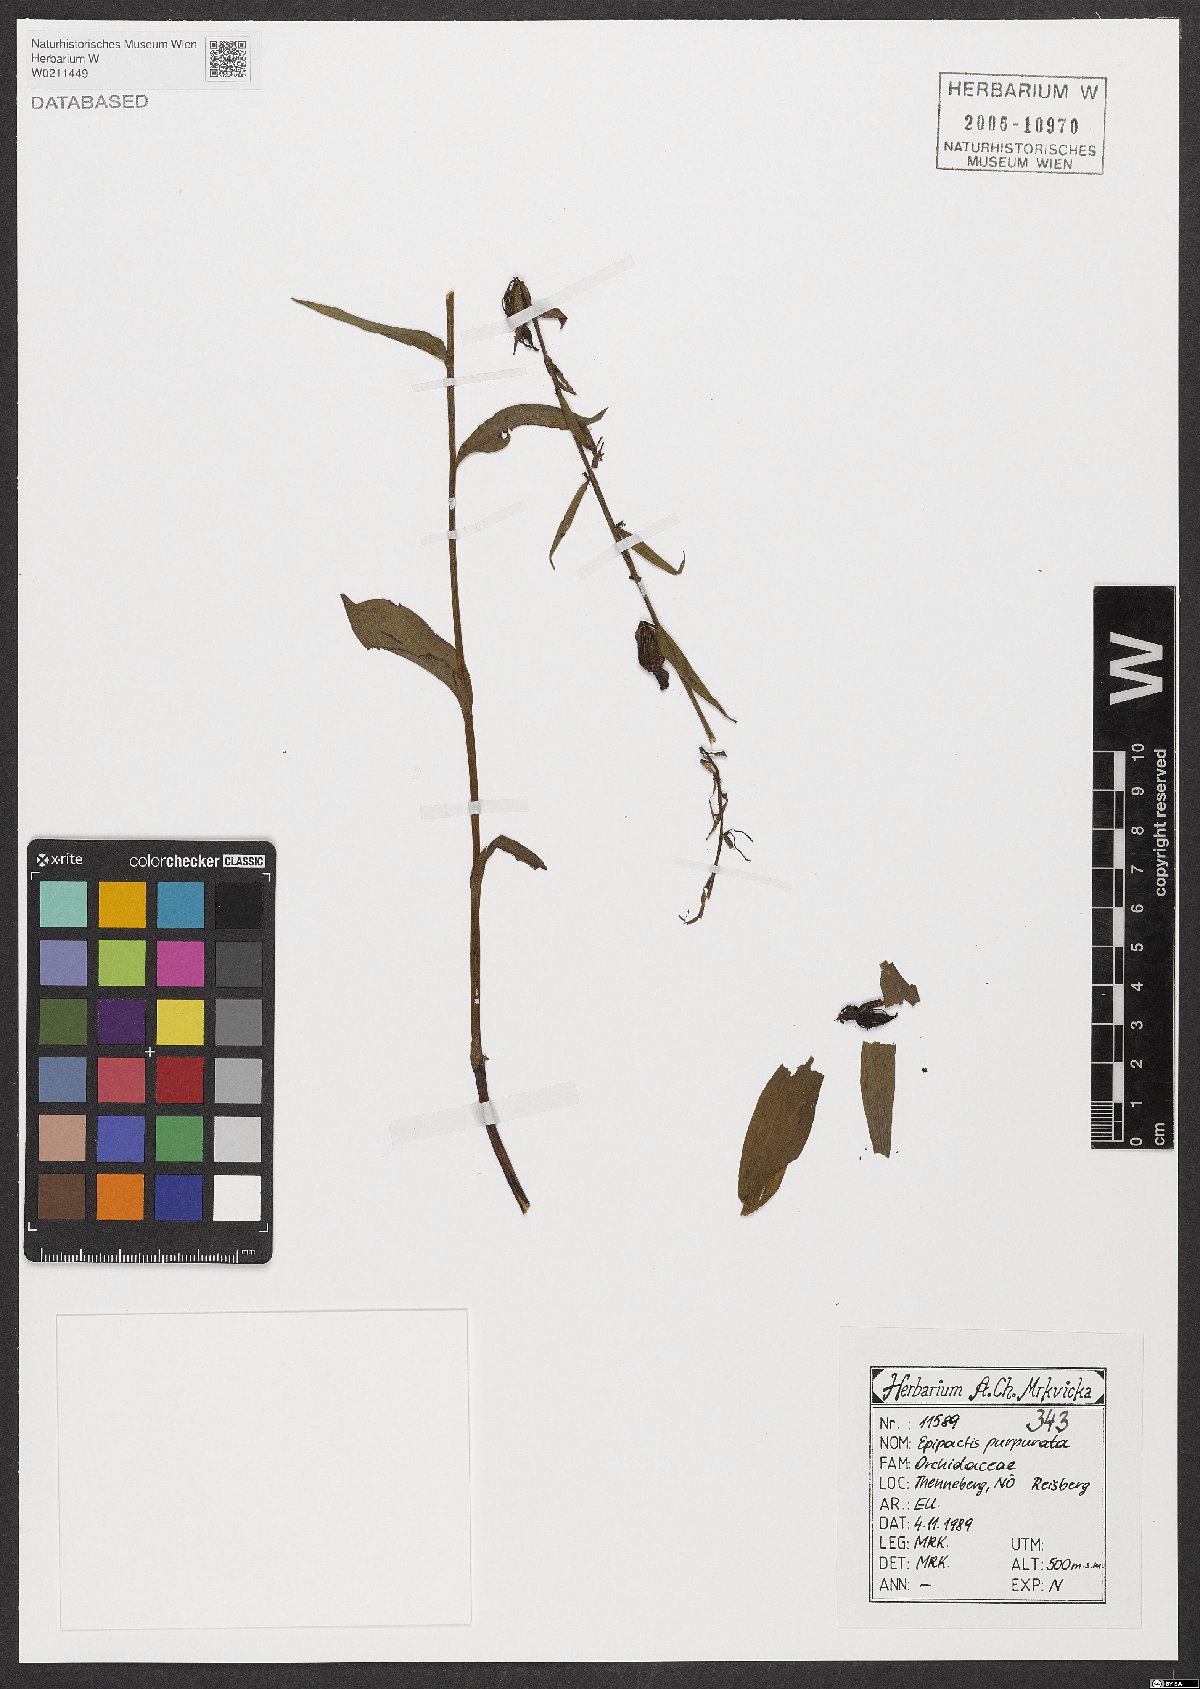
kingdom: Plantae
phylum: Tracheophyta
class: Liliopsida
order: Asparagales
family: Orchidaceae
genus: Epipactis
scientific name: Epipactis purpurata
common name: Violet helleborine
